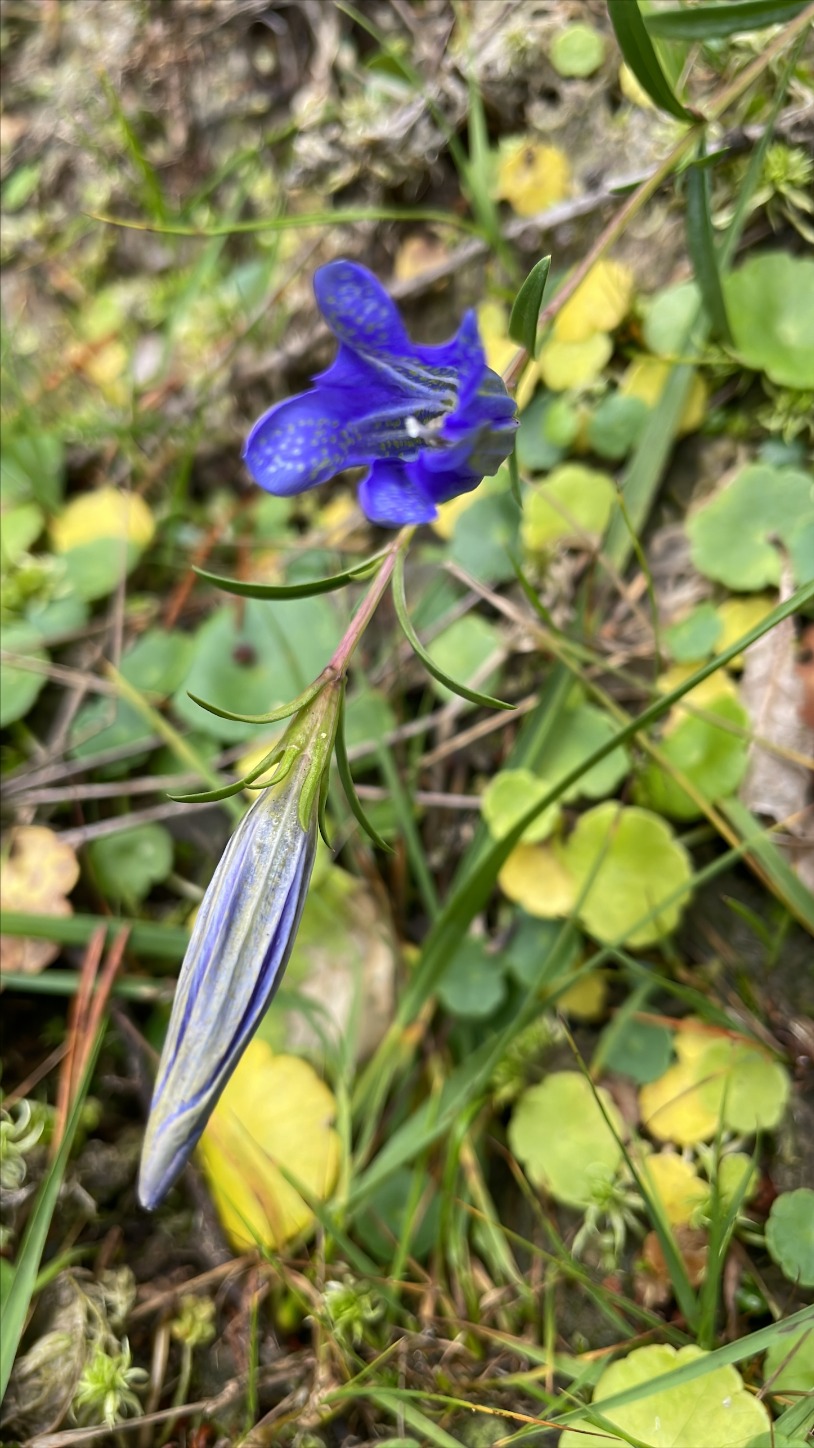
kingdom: Plantae
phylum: Tracheophyta
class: Magnoliopsida
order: Gentianales
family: Gentianaceae
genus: Gentiana
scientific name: Gentiana pneumonanthe
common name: Klokke-ensian
